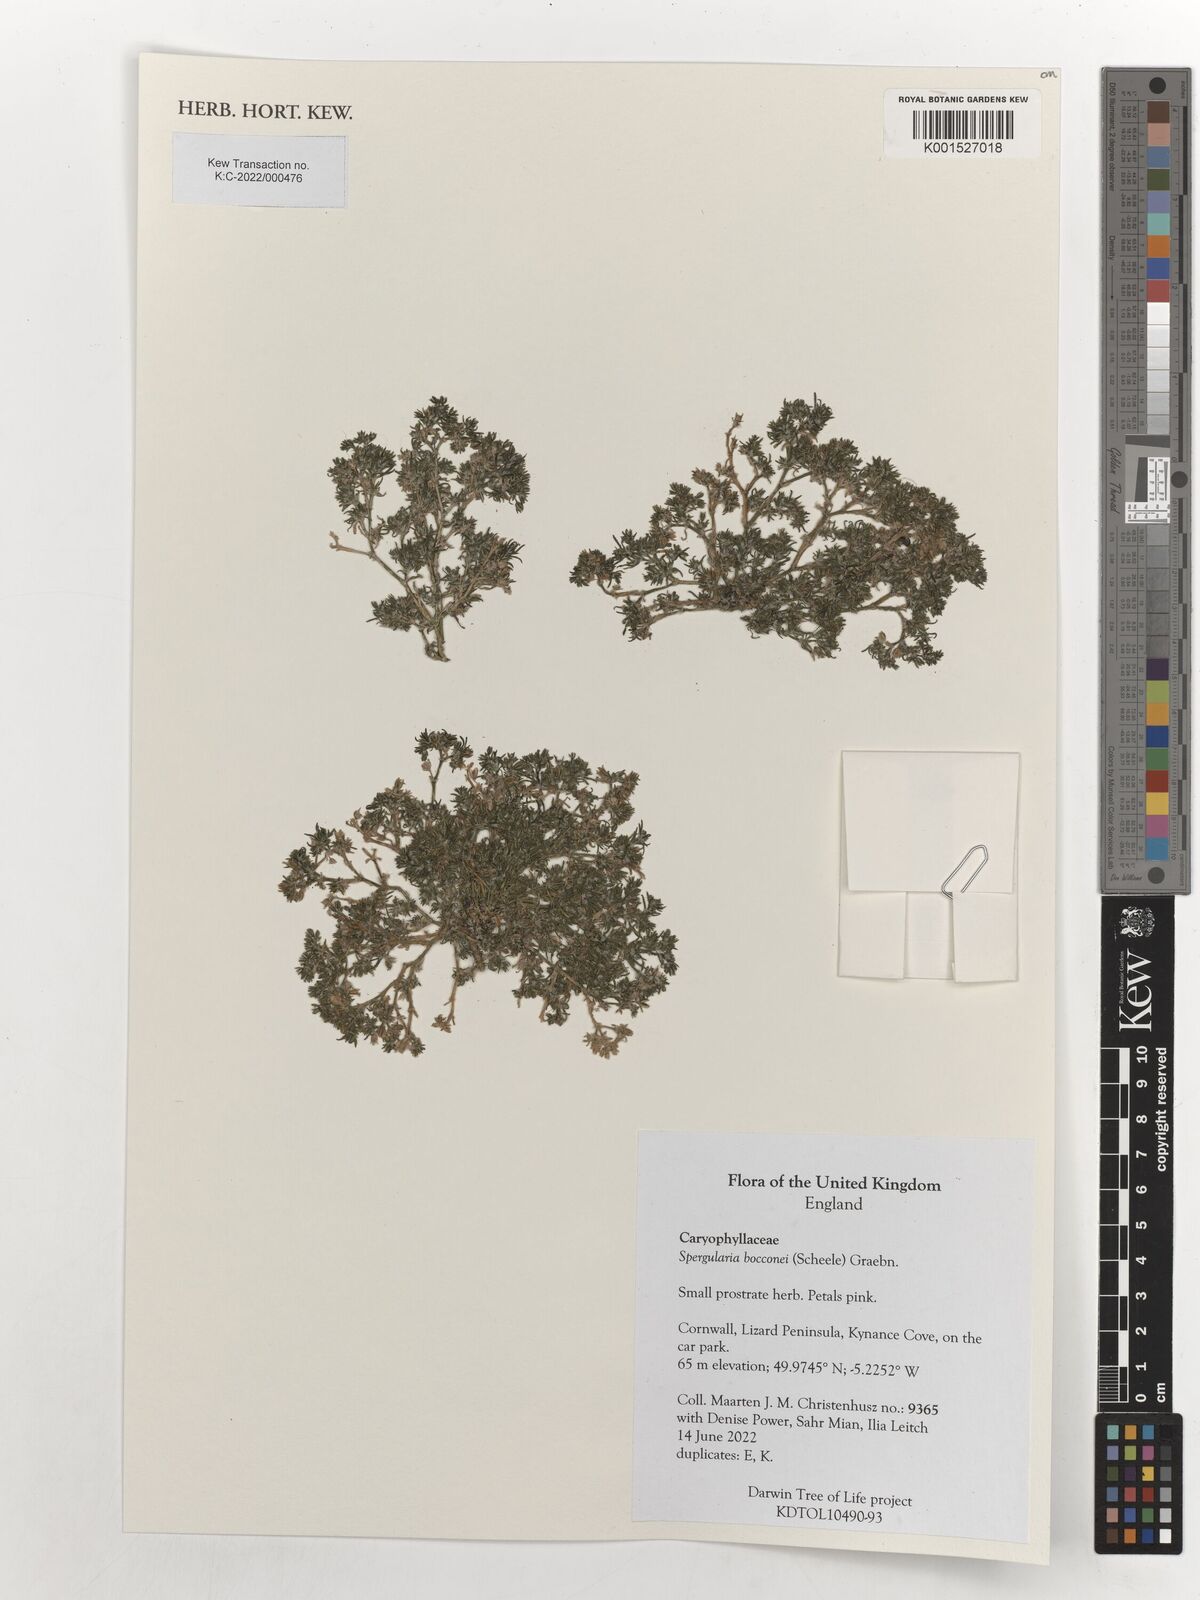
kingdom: Plantae
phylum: Tracheophyta
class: Magnoliopsida
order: Caryophyllales
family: Caryophyllaceae
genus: Spergularia
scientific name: Spergularia bocconei
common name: Greek sea-spurrey
